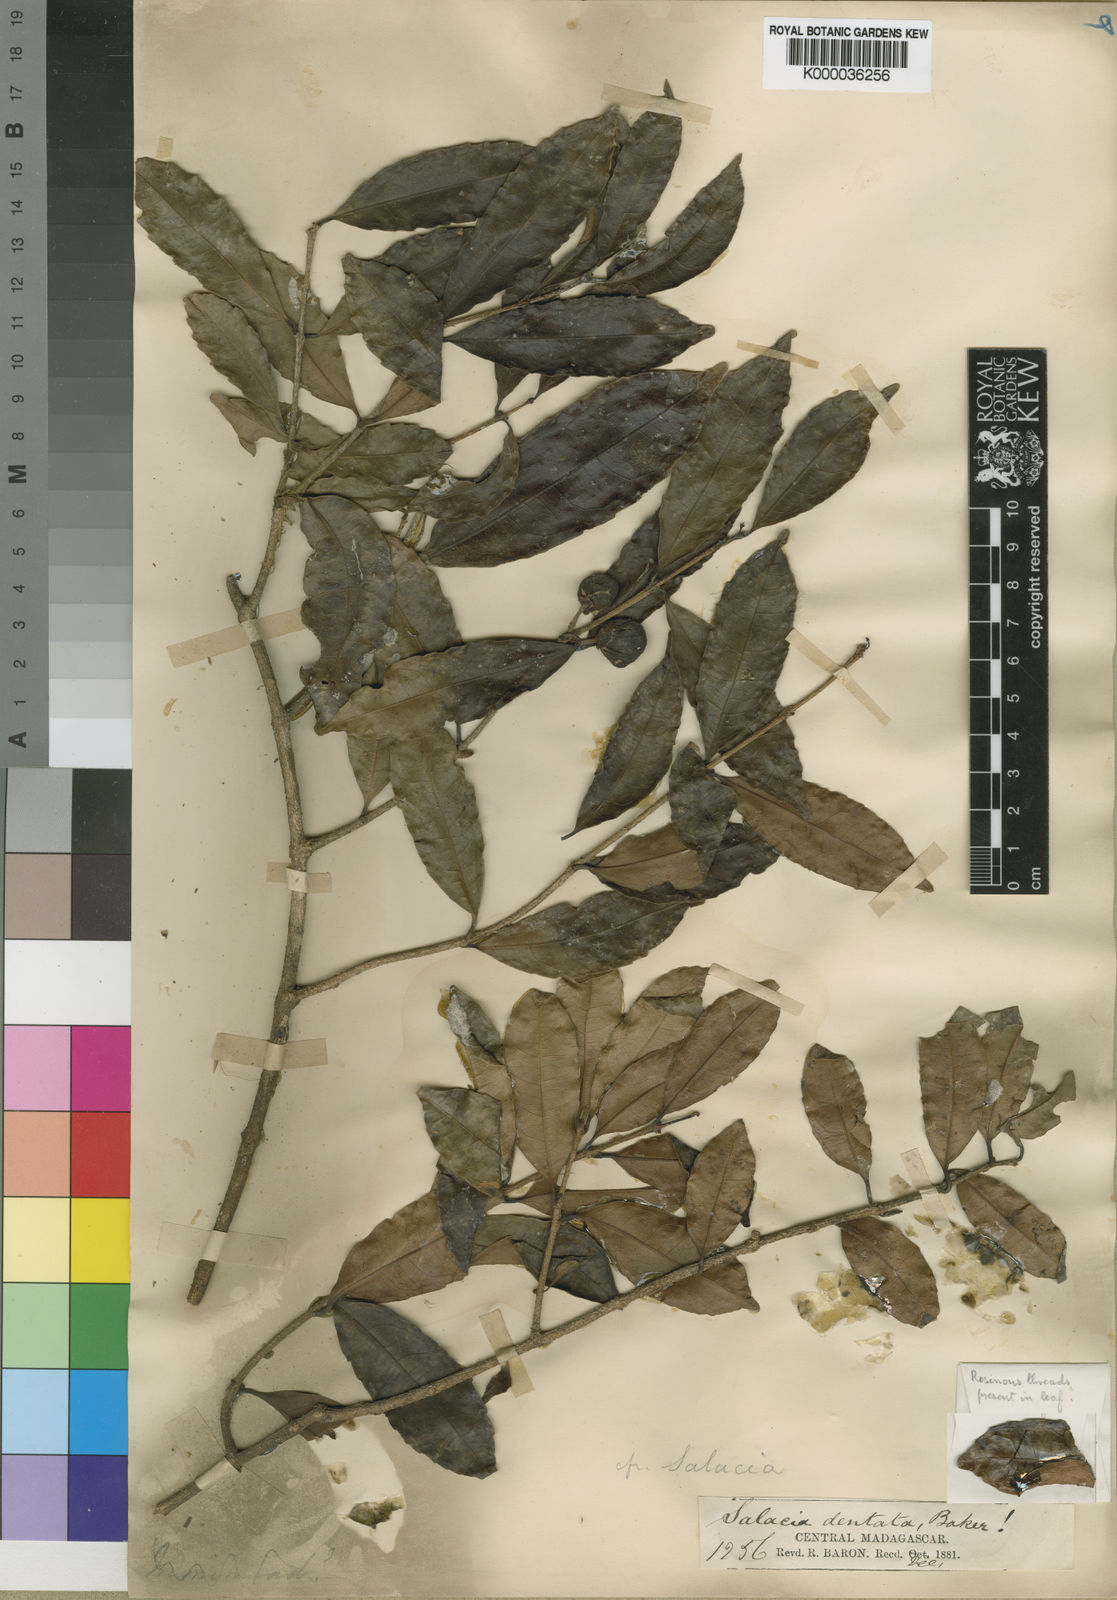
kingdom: Plantae
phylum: Tracheophyta
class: Magnoliopsida
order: Celastrales
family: Celastraceae
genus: Salacia
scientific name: Salacia dentata
